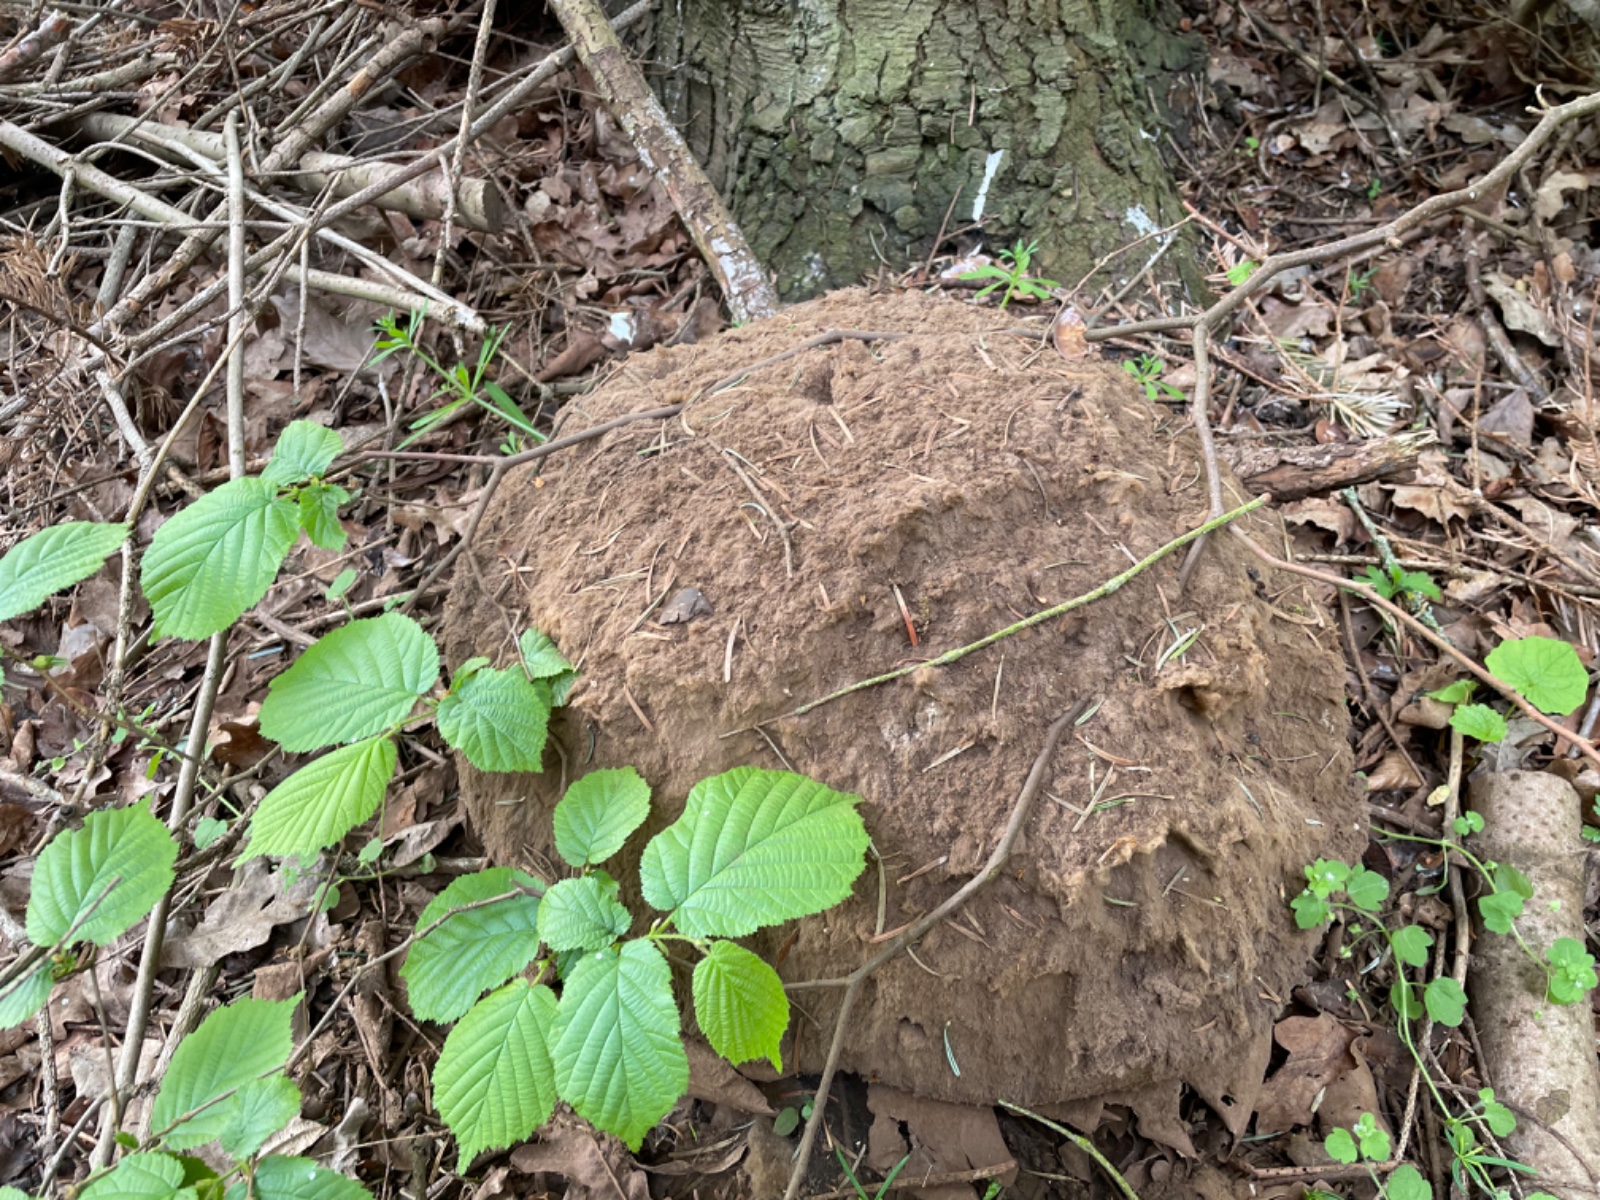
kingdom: Fungi
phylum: Basidiomycota
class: Agaricomycetes
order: Agaricales
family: Lycoperdaceae
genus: Calvatia
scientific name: Calvatia gigantea
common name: kæmpestøvbold
